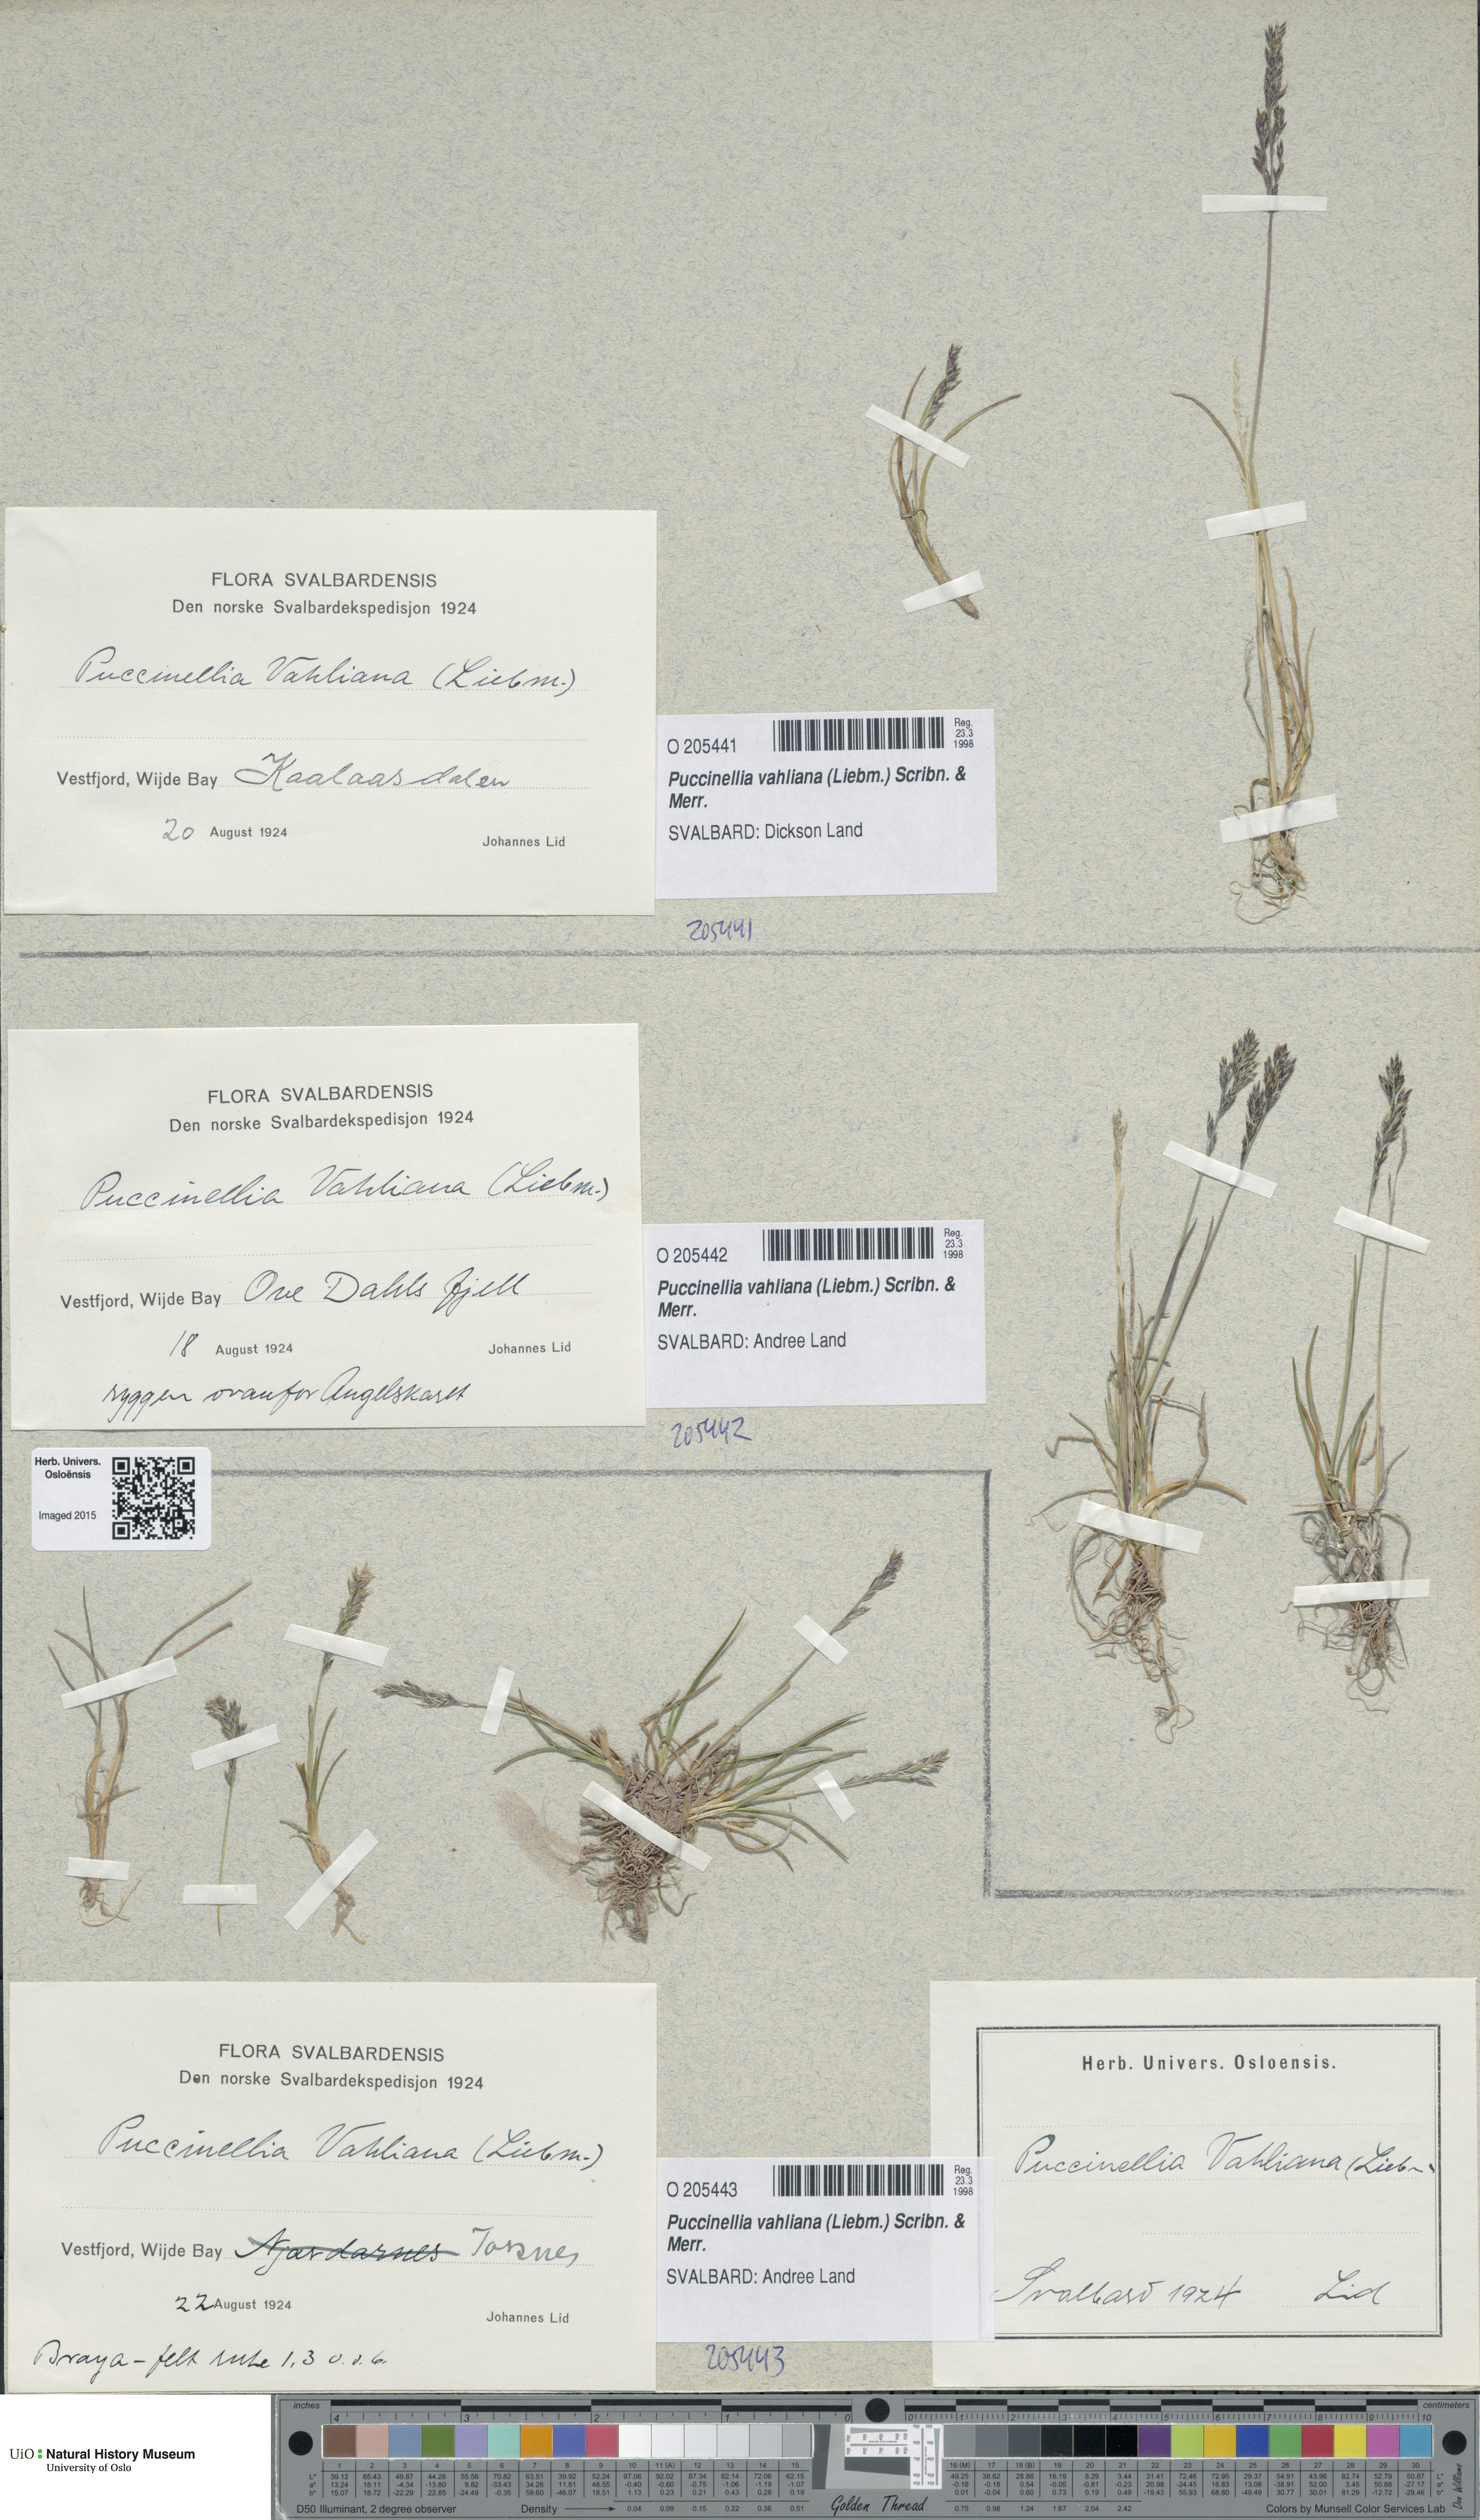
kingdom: Plantae
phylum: Tracheophyta
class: Liliopsida
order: Poales
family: Poaceae
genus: Puccinellia
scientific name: Puccinellia vahliana
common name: Vahl's alkaligrass
